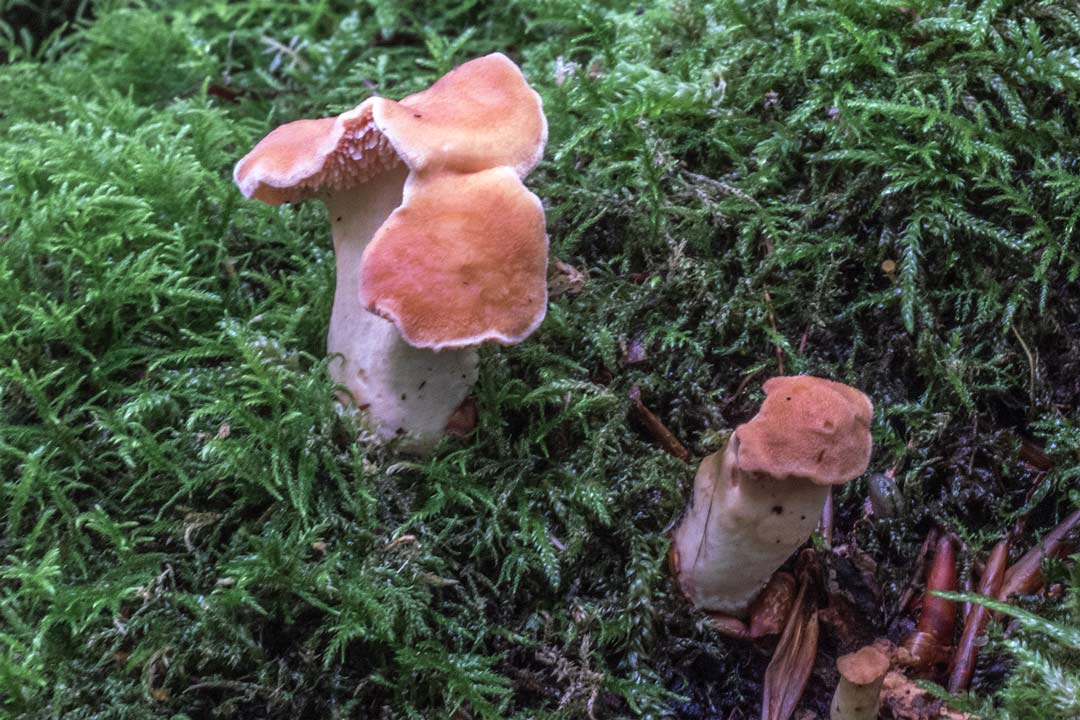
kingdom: Fungi
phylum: Basidiomycota
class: Agaricomycetes
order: Cantharellales
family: Hydnaceae
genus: Hydnum
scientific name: Hydnum rufescens
